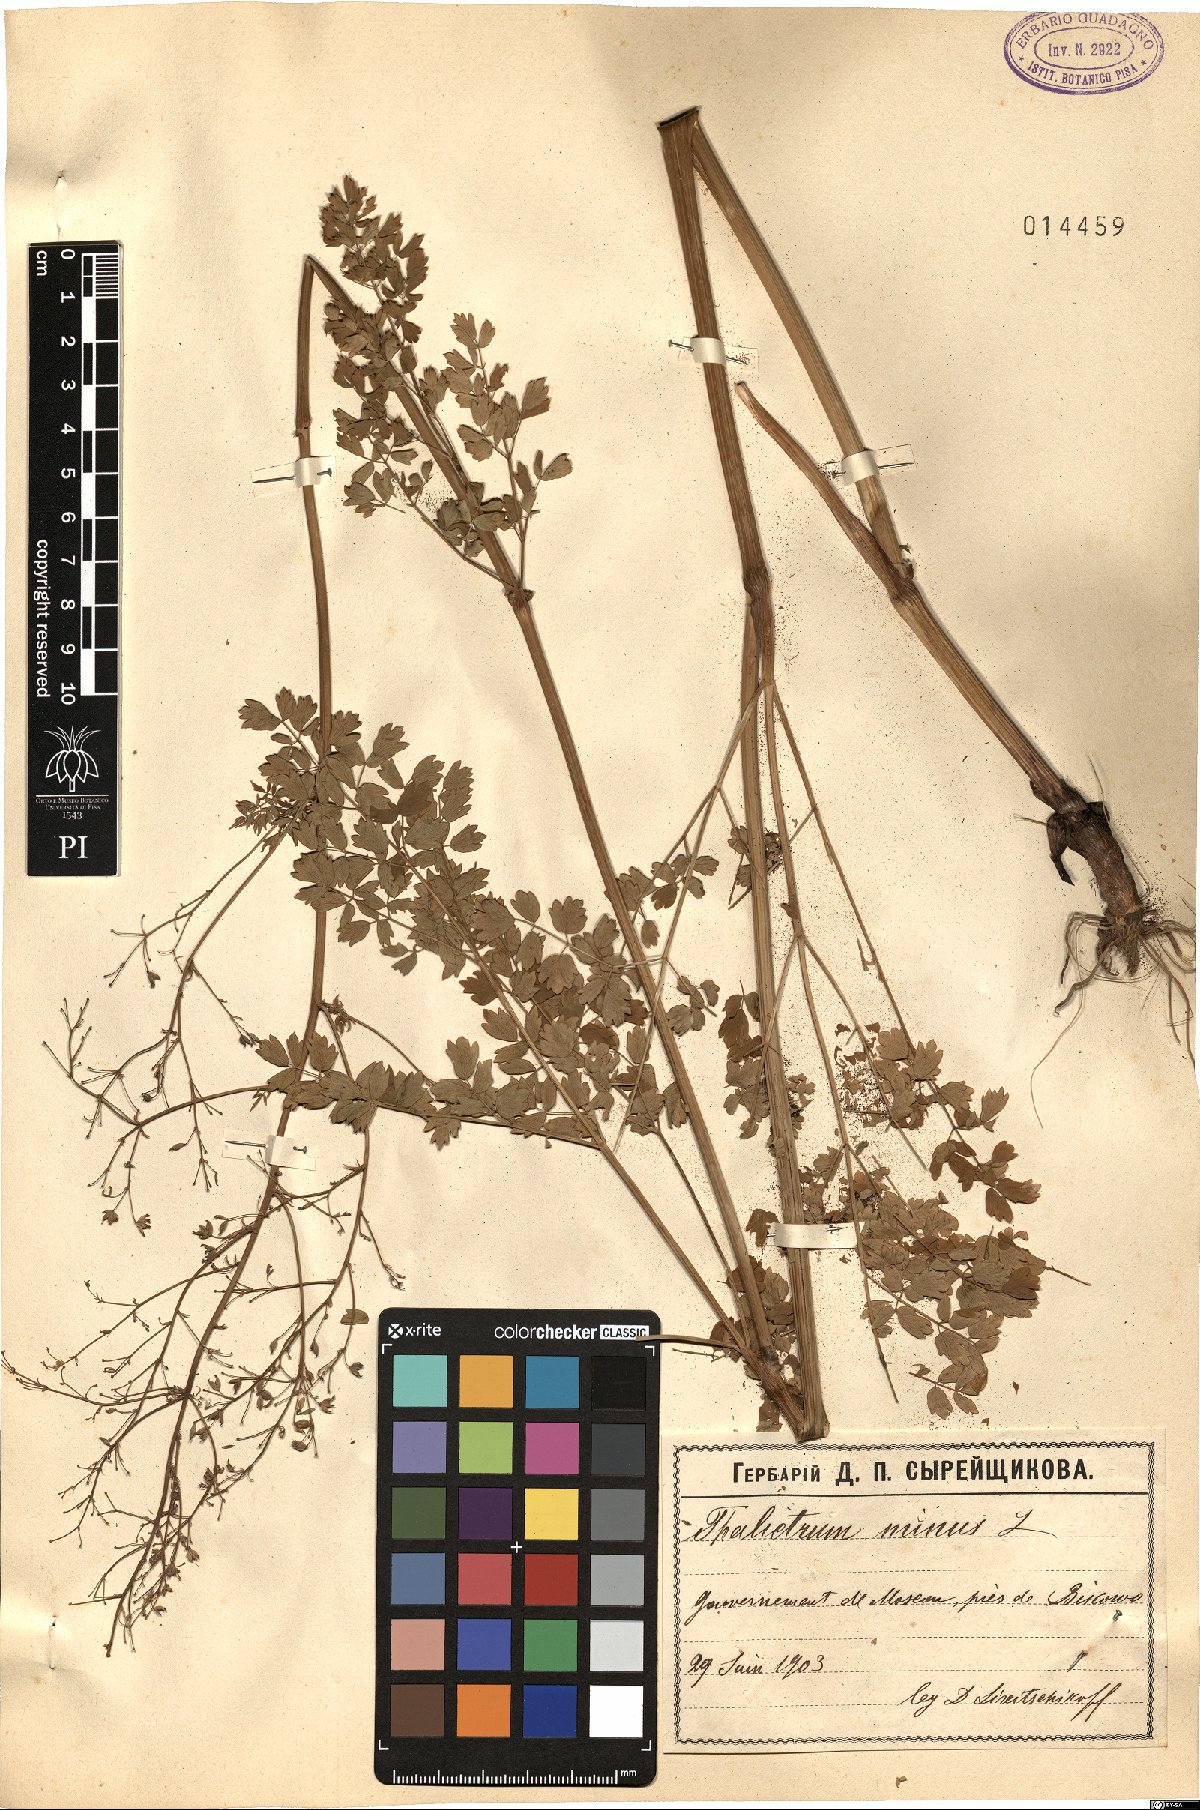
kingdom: Plantae
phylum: Tracheophyta
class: Magnoliopsida
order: Ranunculales
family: Ranunculaceae
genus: Thalictrum
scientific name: Thalictrum minus
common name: Lesser meadow-rue
